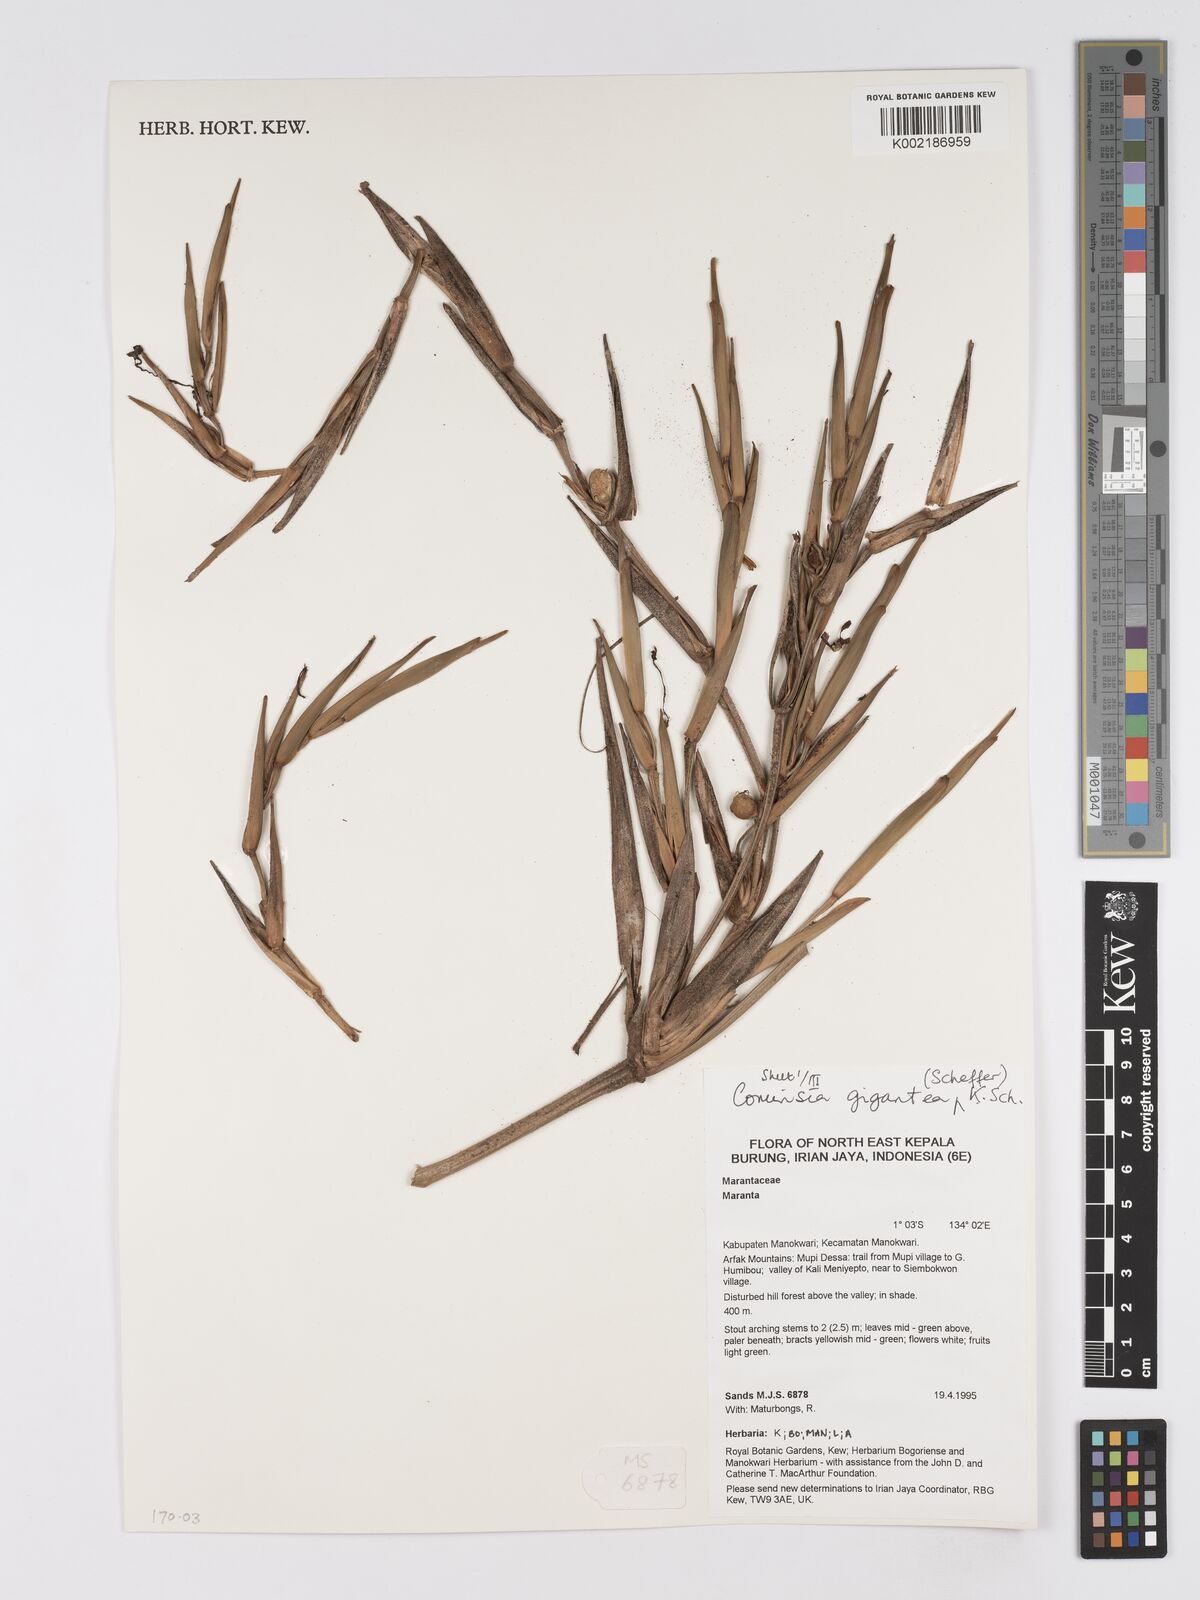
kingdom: Plantae
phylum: Tracheophyta
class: Liliopsida
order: Zingiberales
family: Marantaceae
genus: Phrynium
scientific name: Phrynium giganteum
